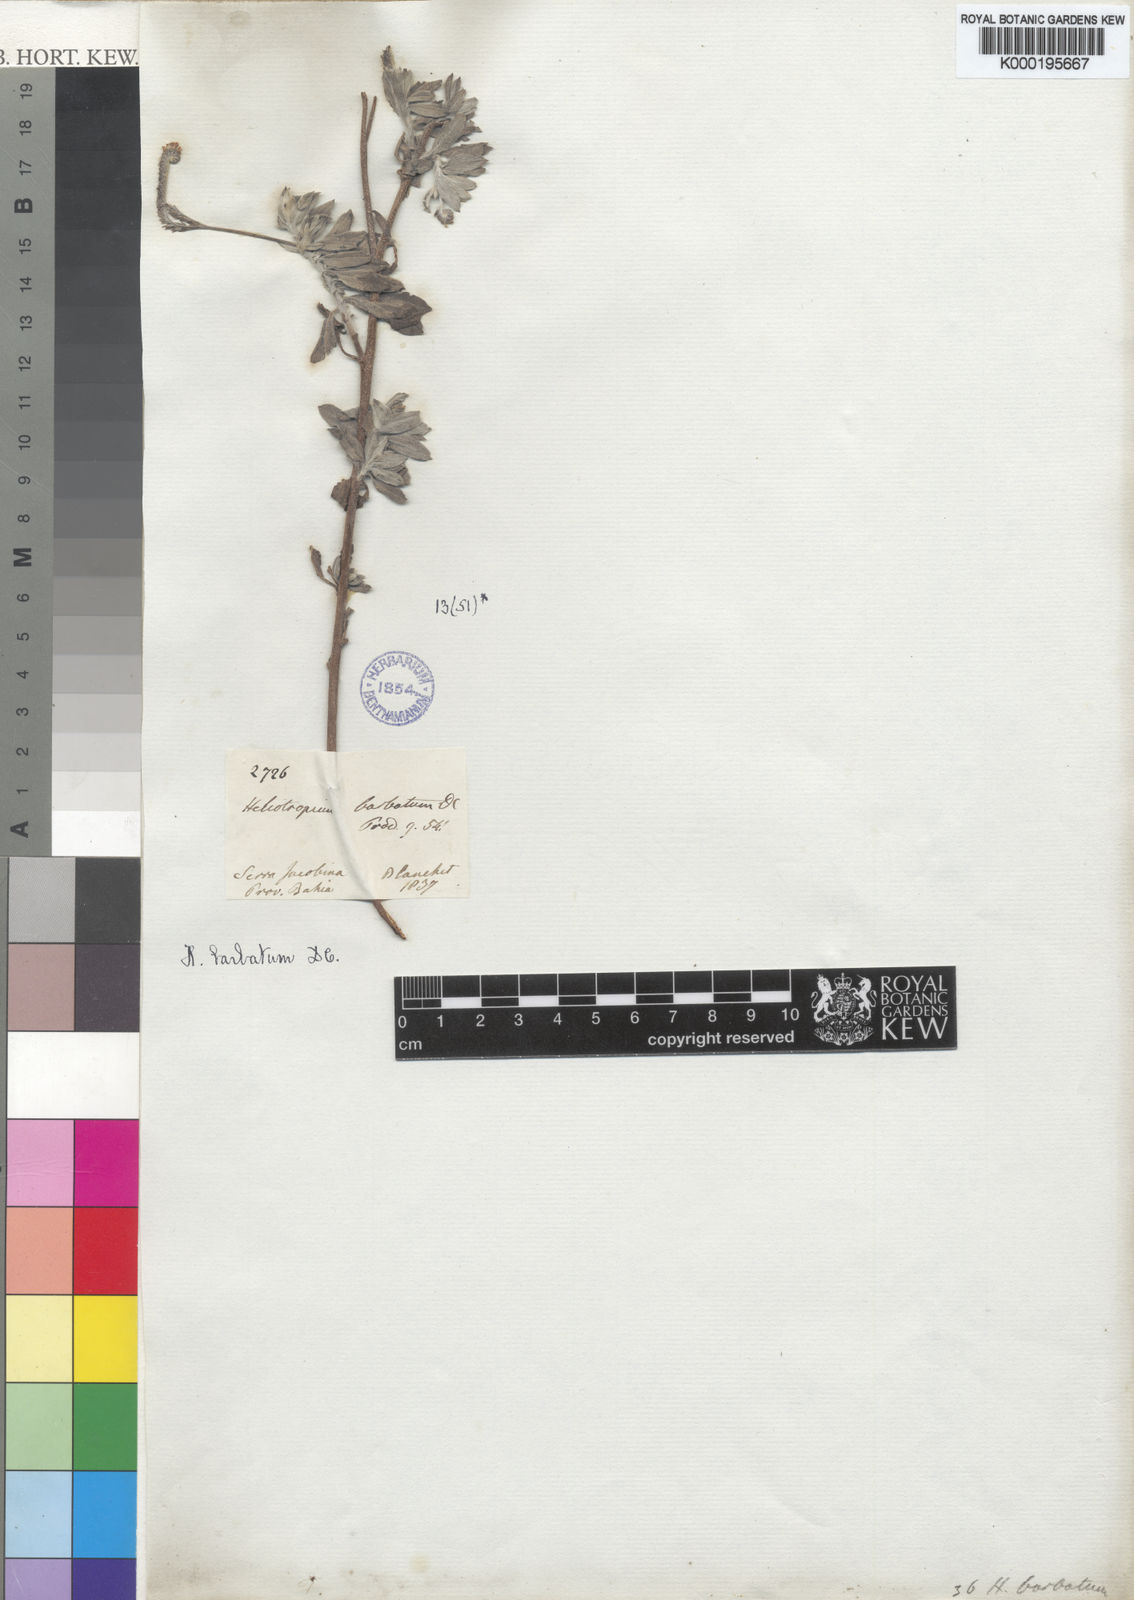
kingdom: Plantae
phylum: Tracheophyta
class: Magnoliopsida
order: Boraginales
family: Heliotropiaceae
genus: Euploca
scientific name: Euploca barbata
